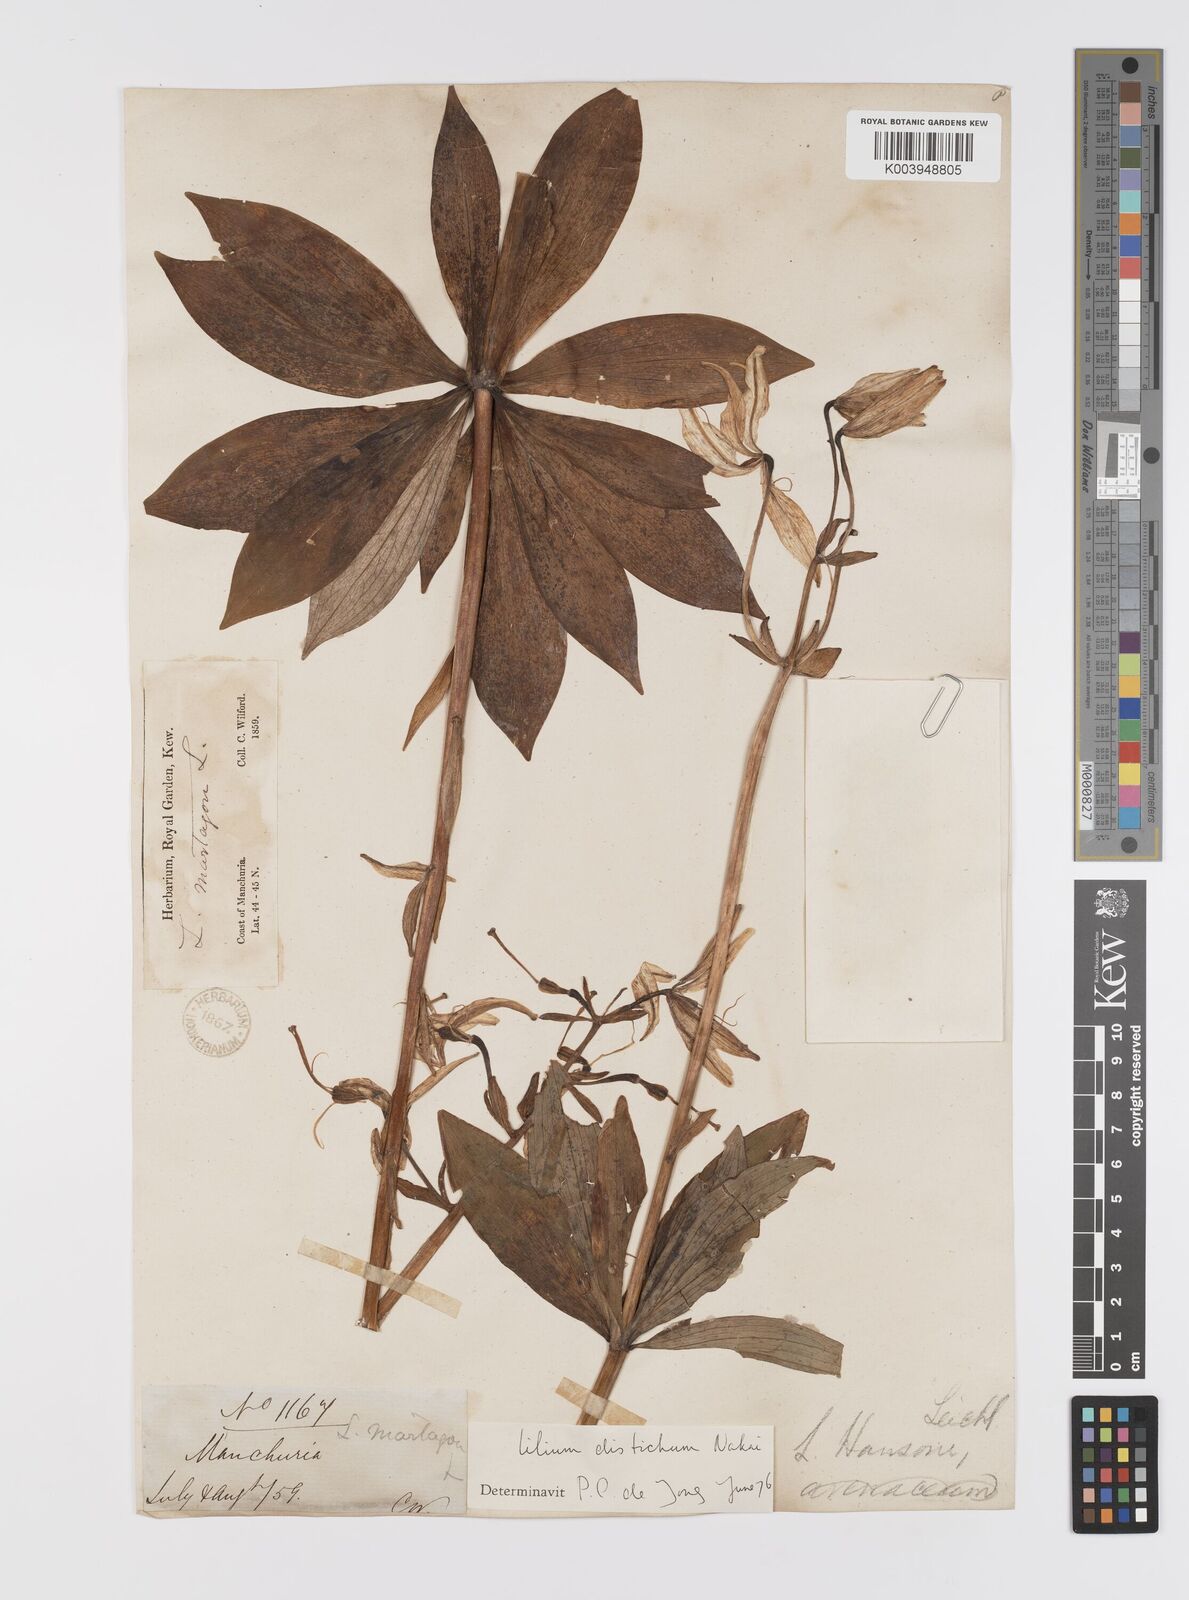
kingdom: Plantae
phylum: Tracheophyta
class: Liliopsida
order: Liliales
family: Liliaceae
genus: Lilium
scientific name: Lilium distichum
